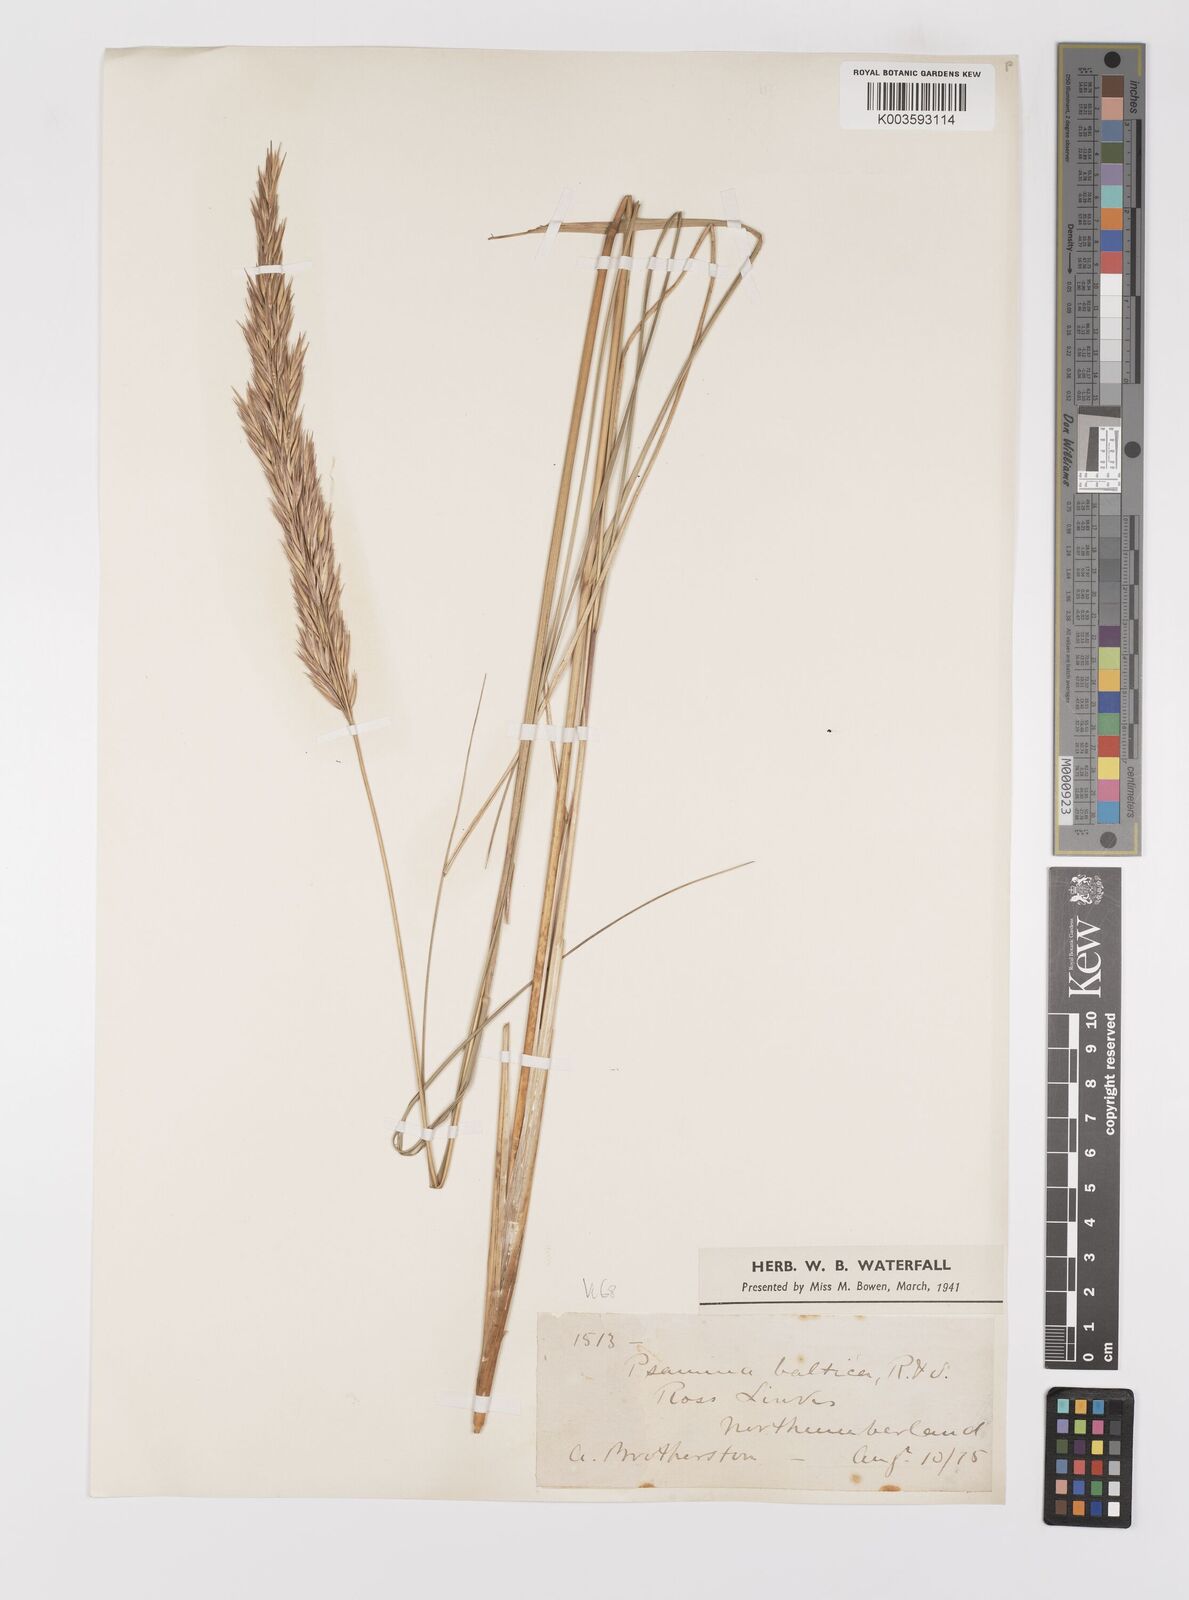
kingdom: Plantae
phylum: Tracheophyta
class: Liliopsida
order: Poales
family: Poaceae
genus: Calamagrostis
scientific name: Calamagrostis baltica
